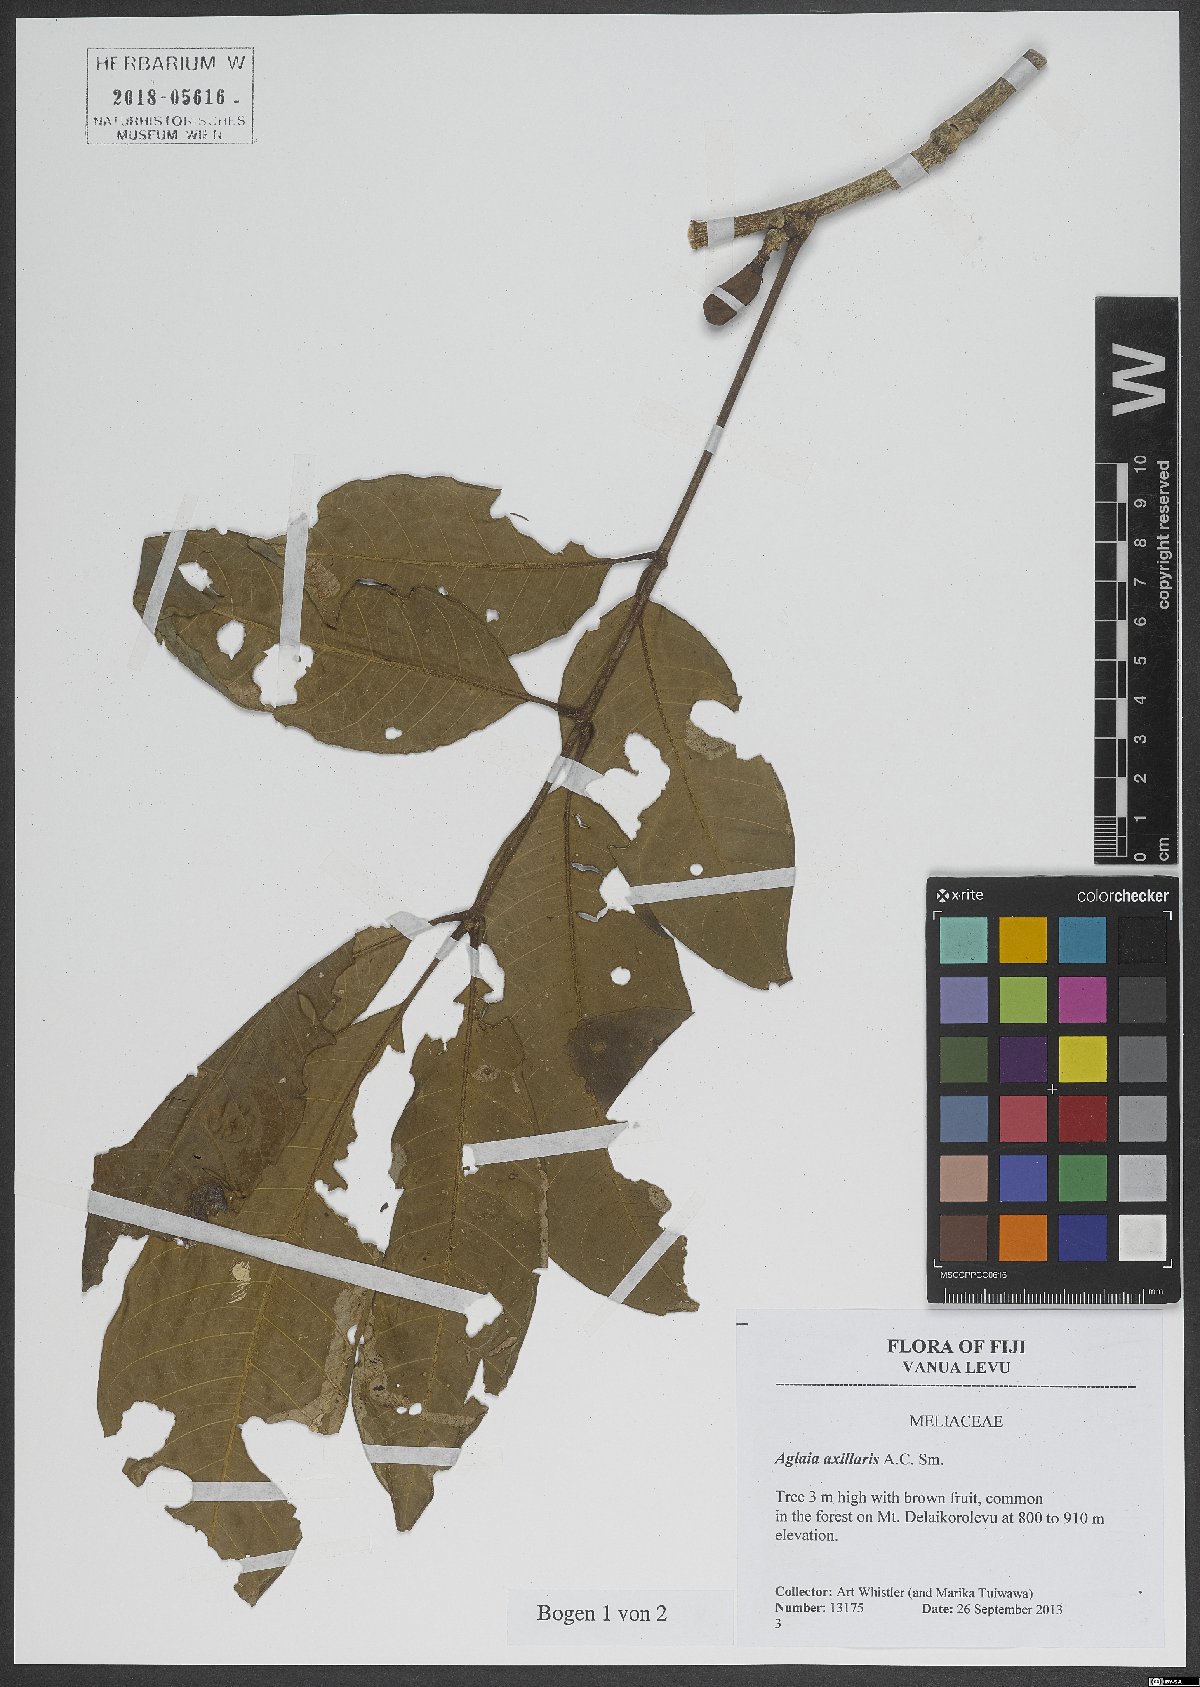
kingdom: Plantae
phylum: Tracheophyta
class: Magnoliopsida
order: Sapindales
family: Meliaceae
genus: Aglaia
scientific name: Aglaia vitiensis
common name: Lindiyango
